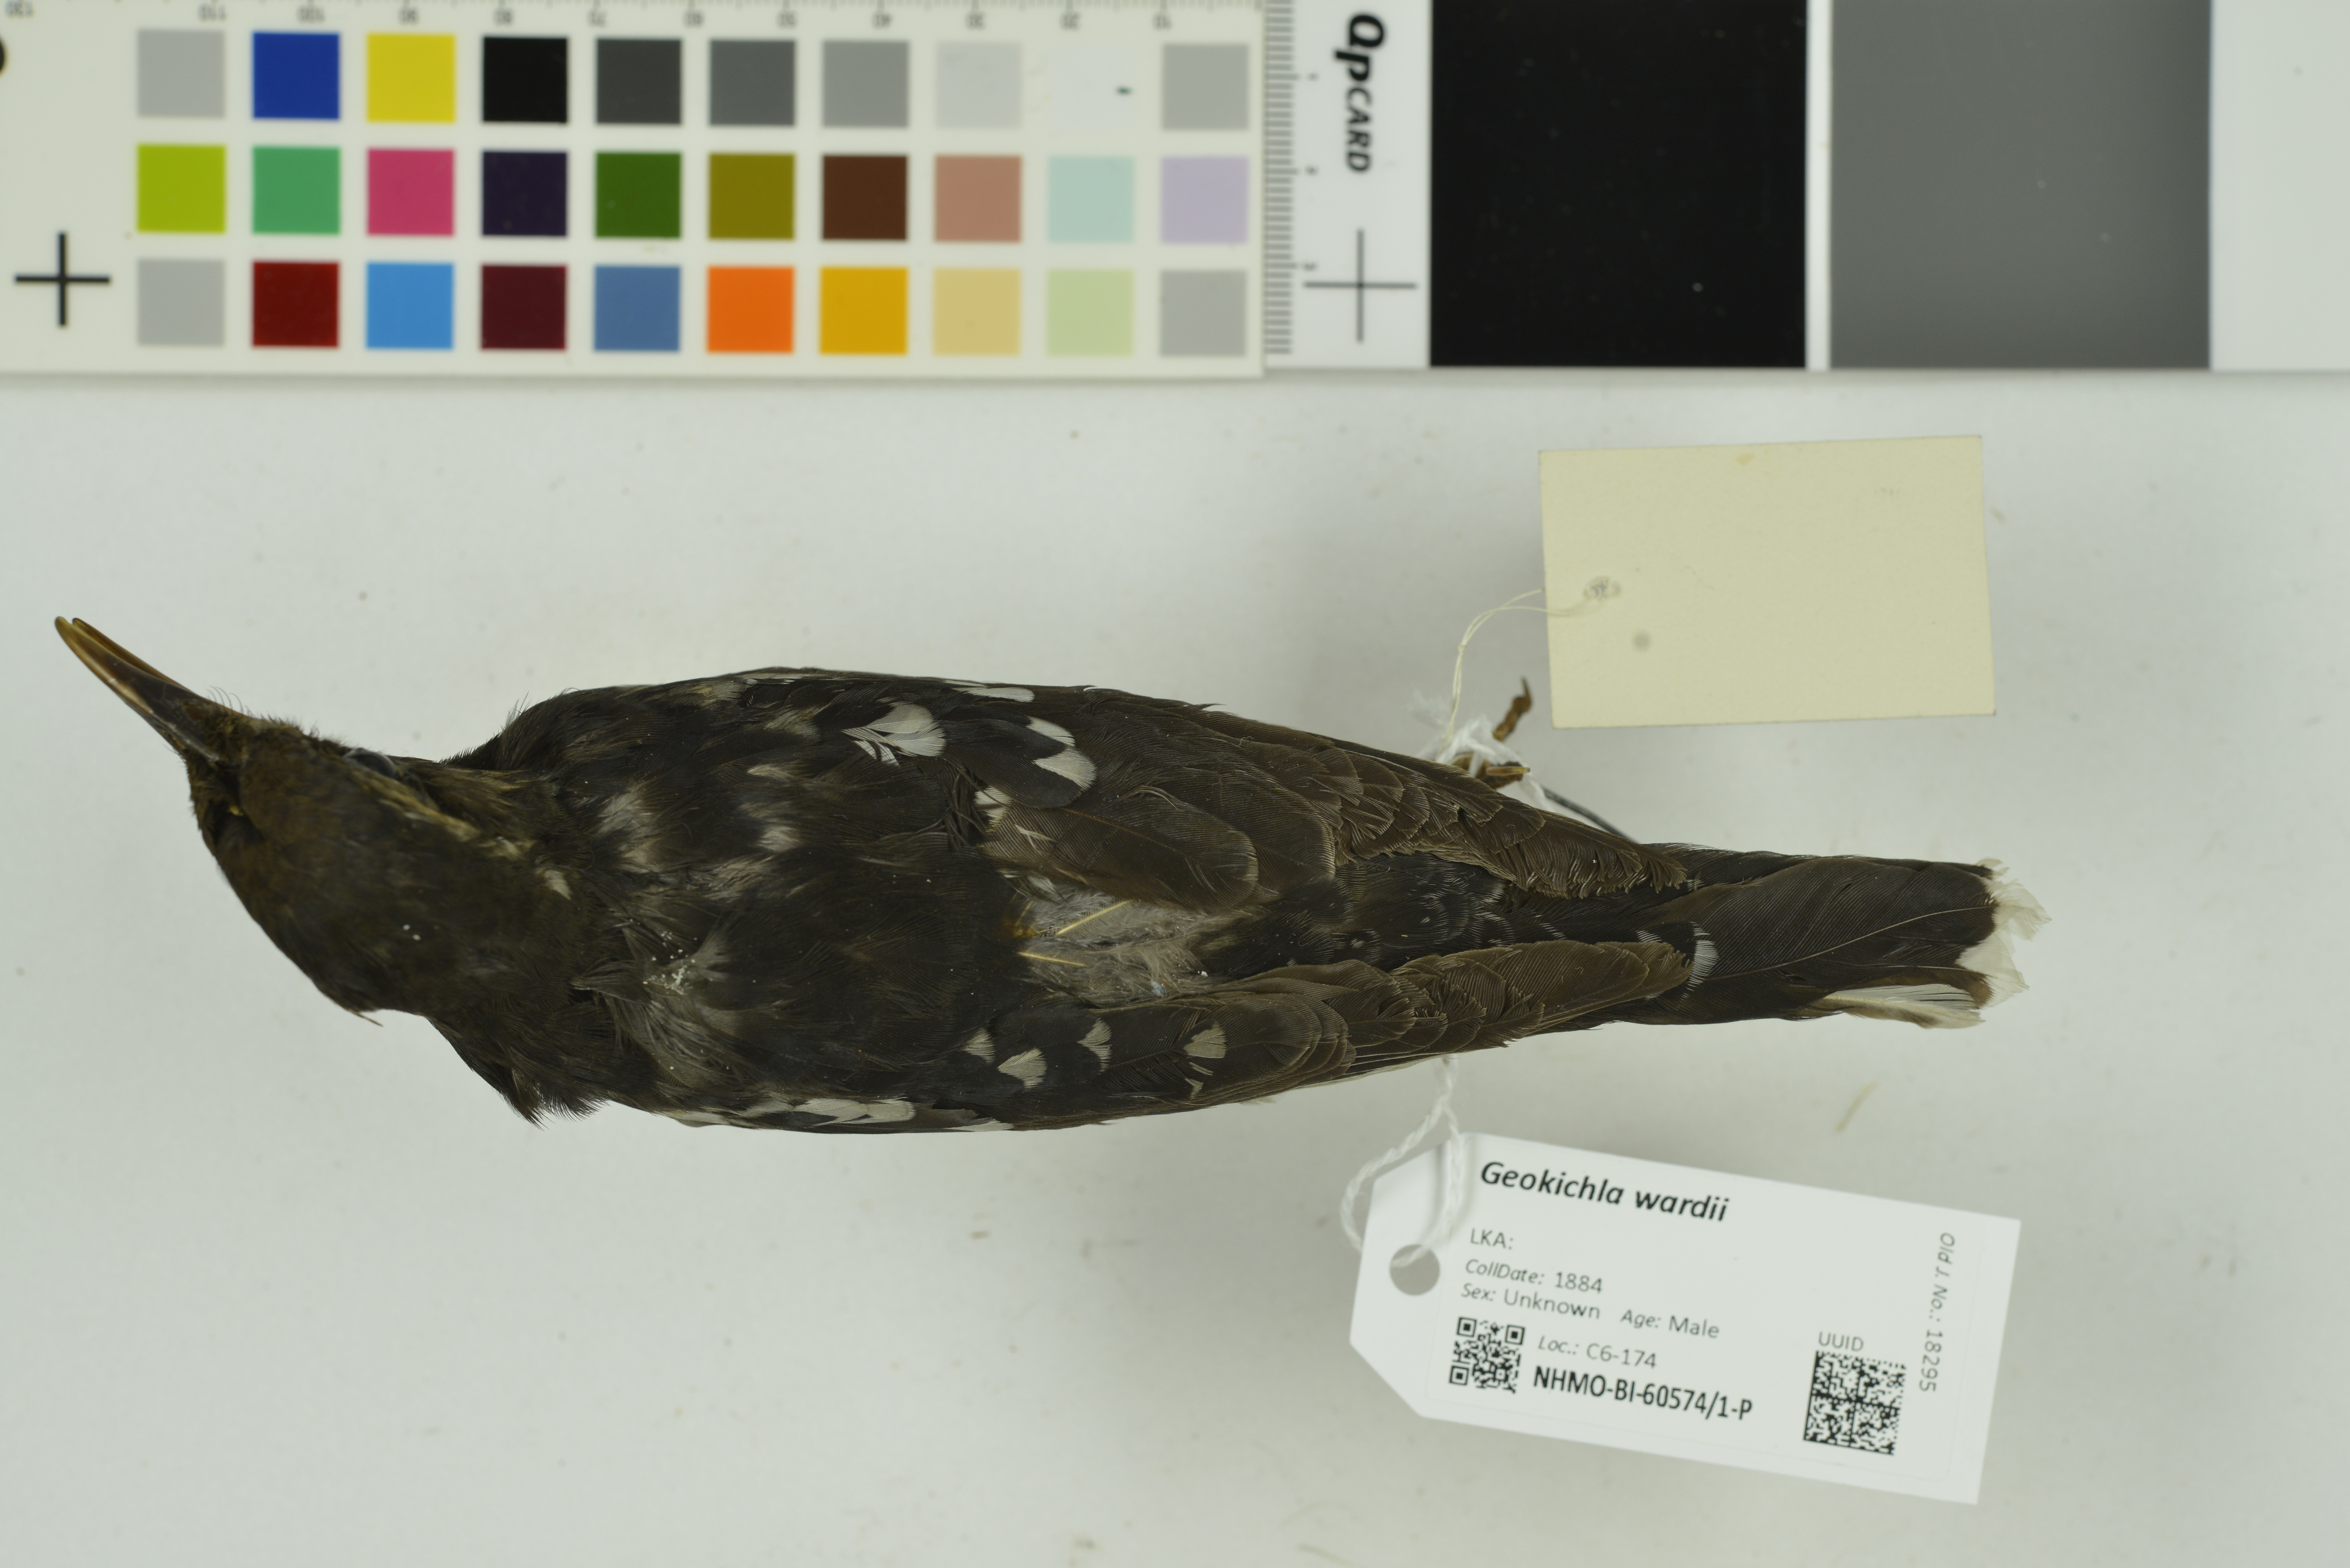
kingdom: Animalia
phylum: Chordata
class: Aves
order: Passeriformes
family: Turdidae
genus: Geokichla
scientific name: Geokichla wardii
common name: Pied thrush
